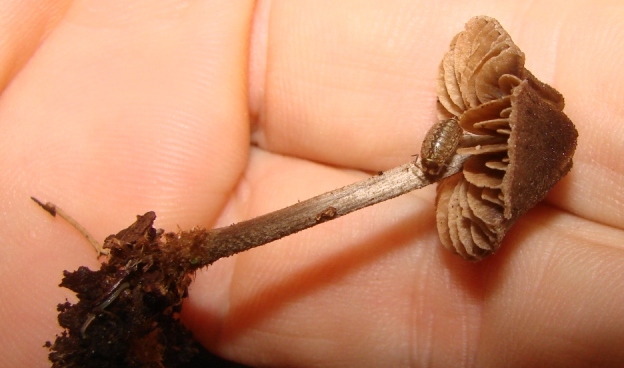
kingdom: Fungi
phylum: Basidiomycota
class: Agaricomycetes
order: Agaricales
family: Entolomataceae
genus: Entoloma
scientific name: Entoloma dysthaloides
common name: dyster rødblad
